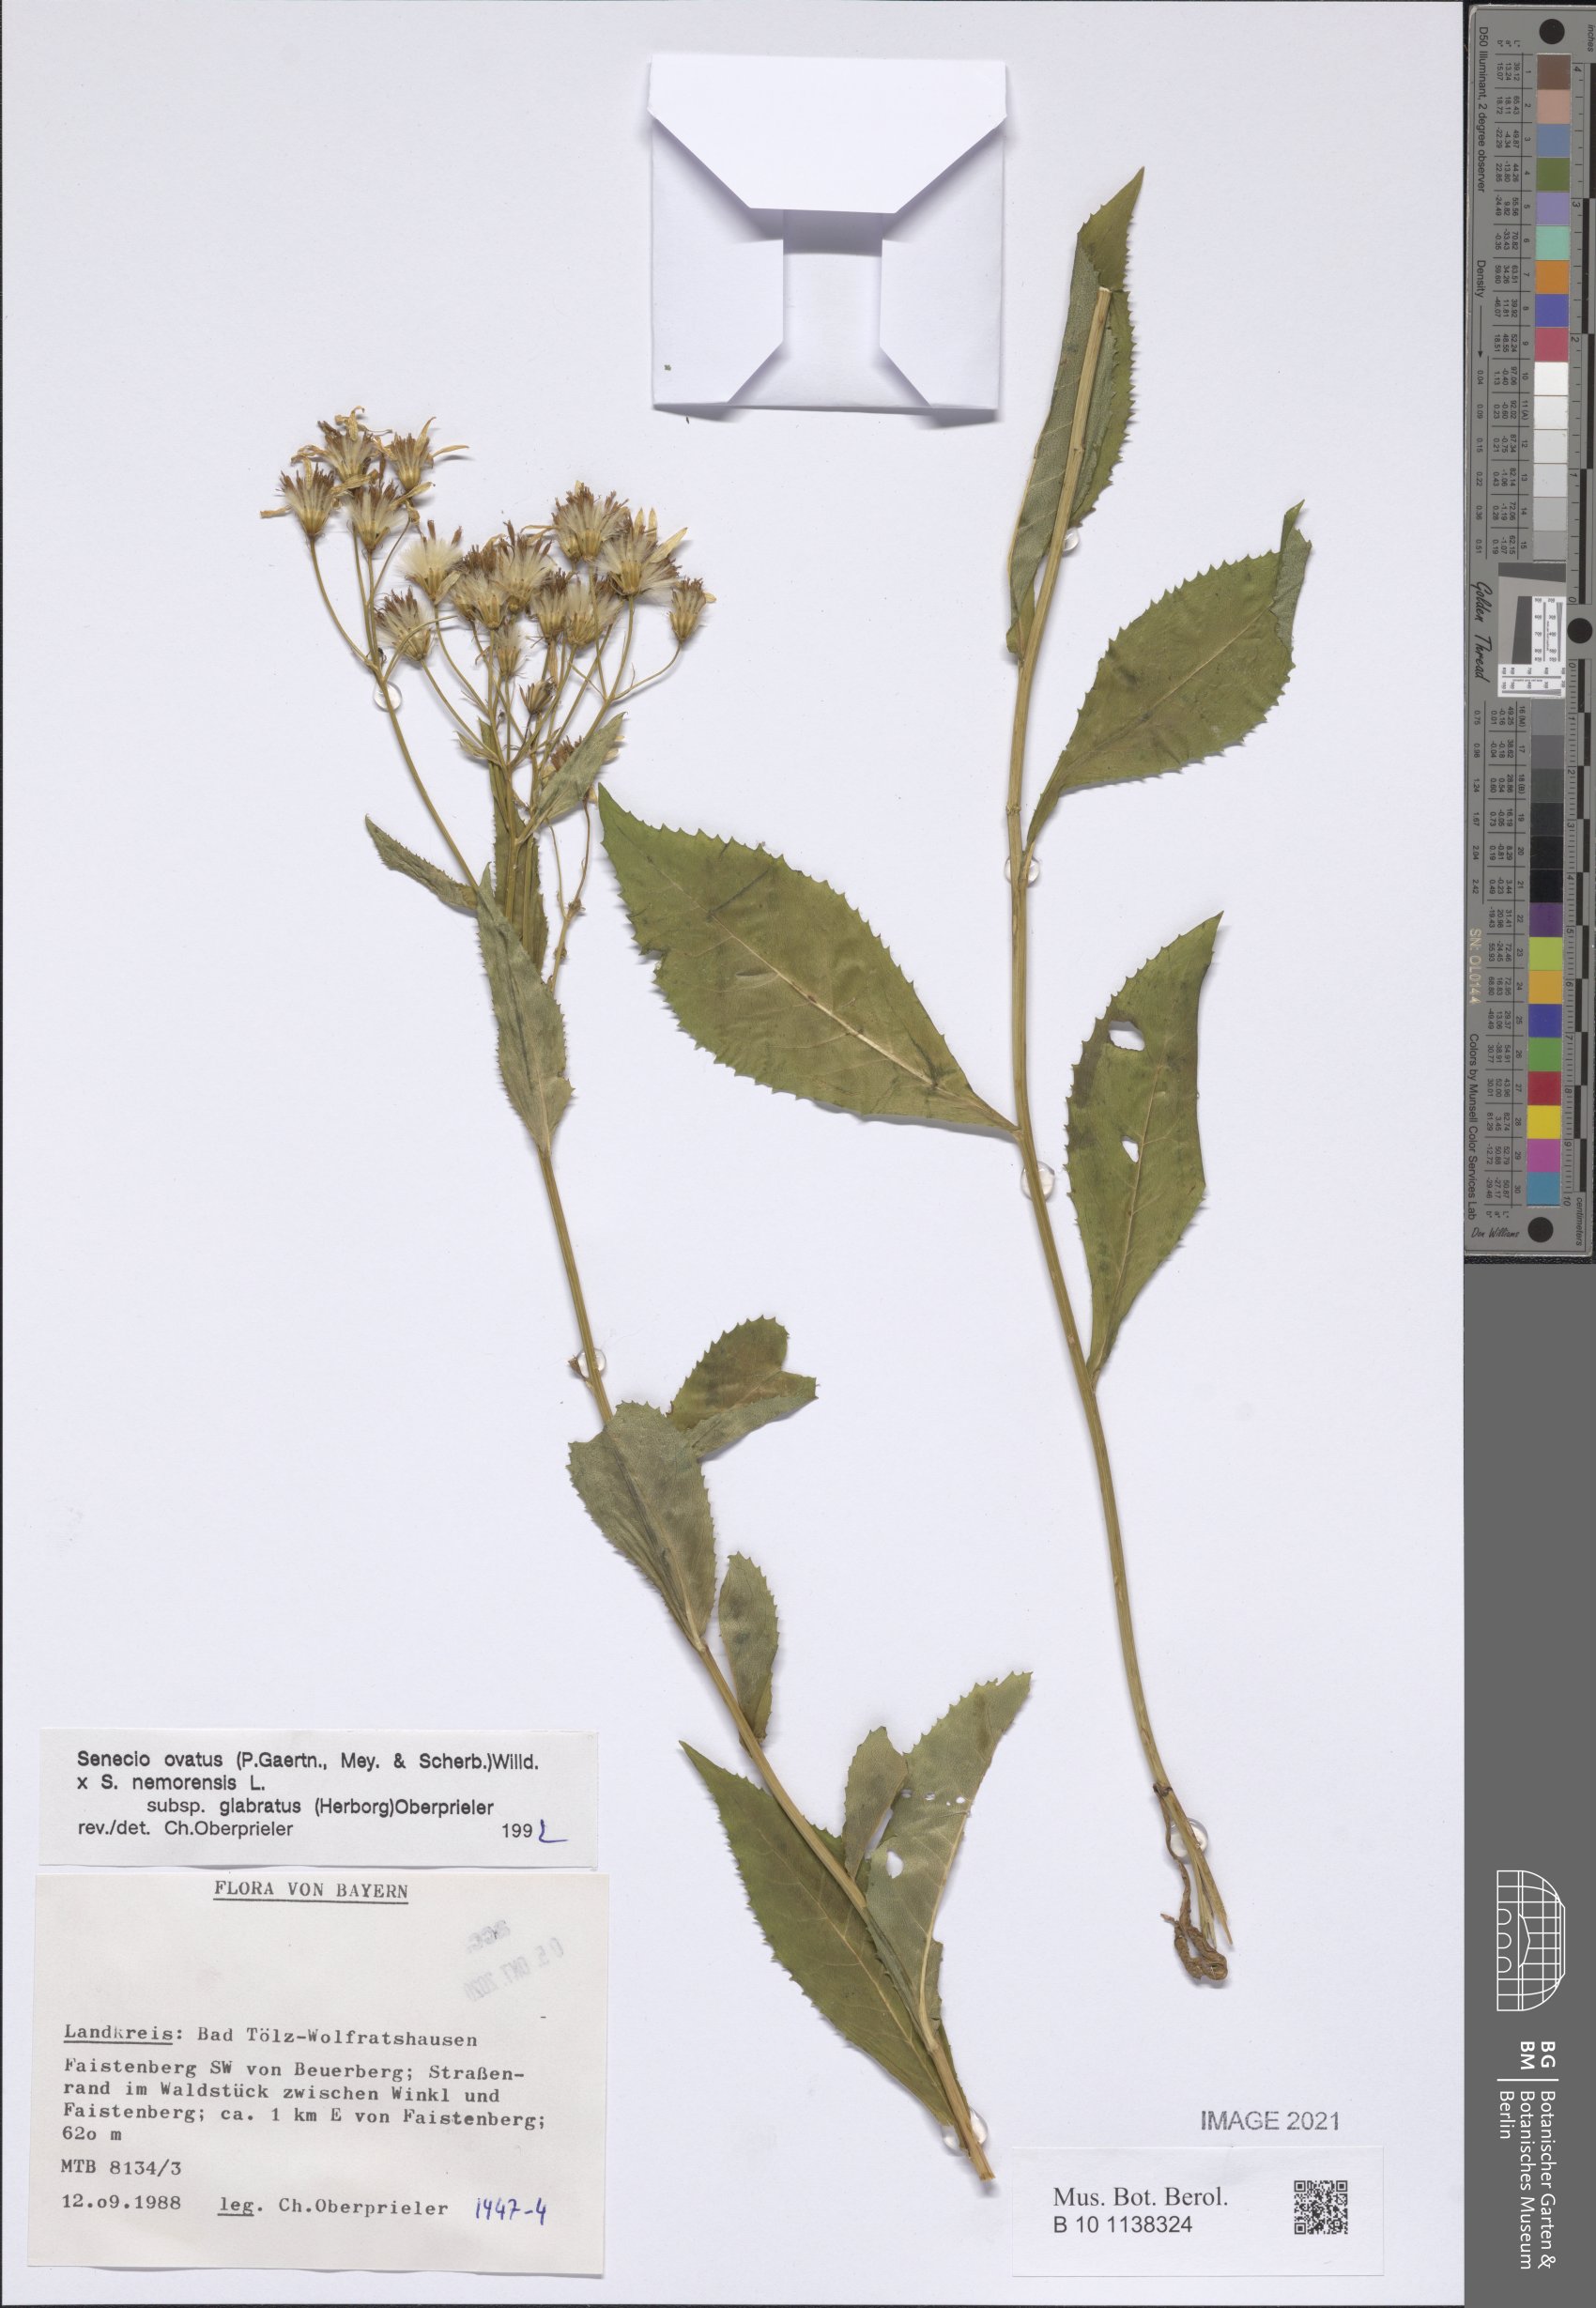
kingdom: Plantae
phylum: Tracheophyta
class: Magnoliopsida
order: Asterales
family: Asteraceae
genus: Senecio
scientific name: Senecio ovatus
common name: Wood ragwort
